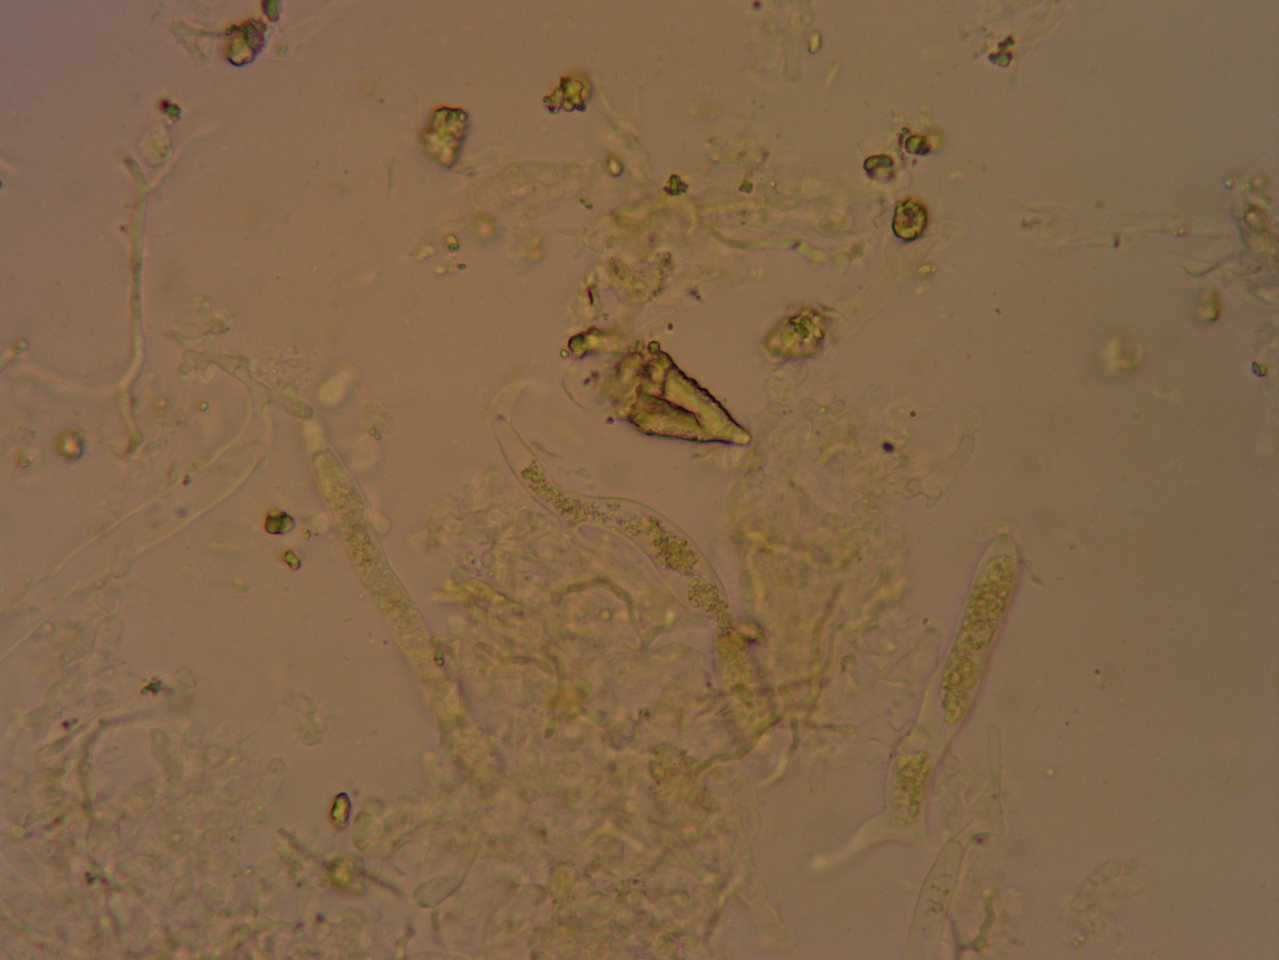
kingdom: Fungi
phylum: Basidiomycota
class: Agaricomycetes
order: Russulales
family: Peniophoraceae
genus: Peniophora
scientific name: Peniophora incarnata
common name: laksefarvet voksskind
